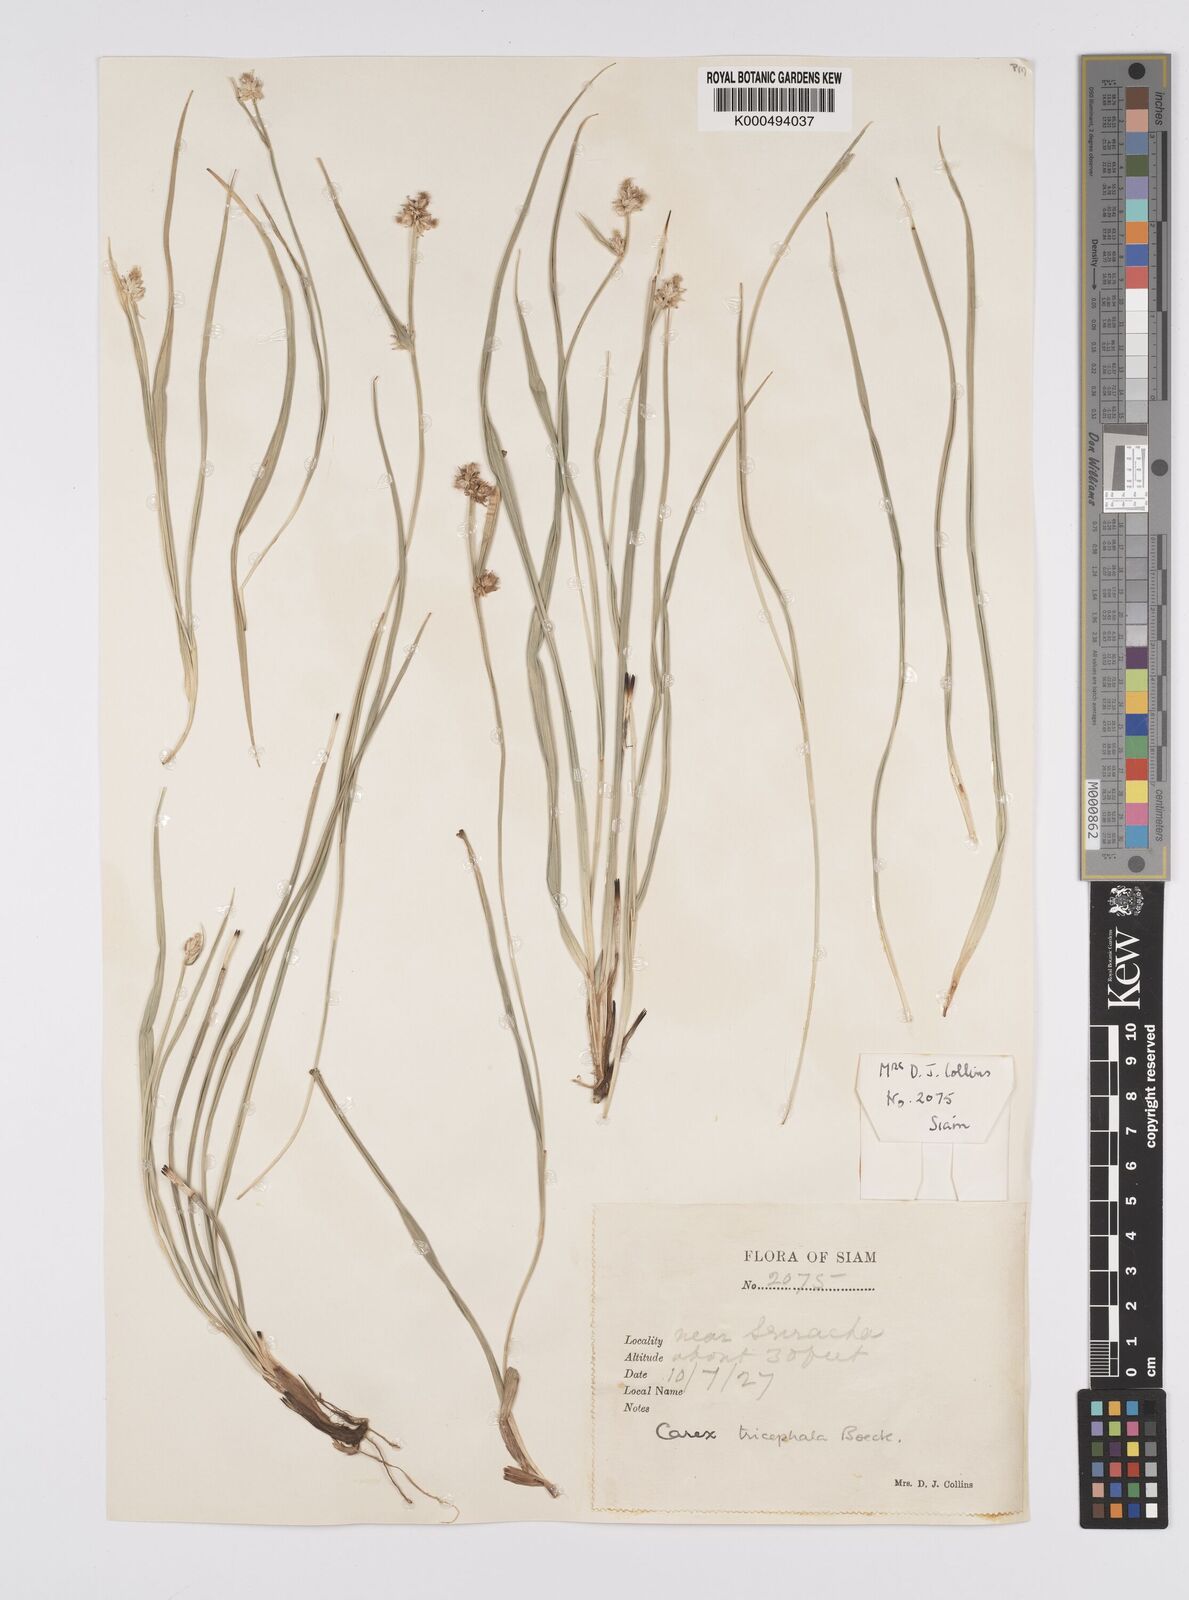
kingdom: Plantae
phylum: Tracheophyta
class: Liliopsida
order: Poales
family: Cyperaceae
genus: Carex
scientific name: Carex tricephala
